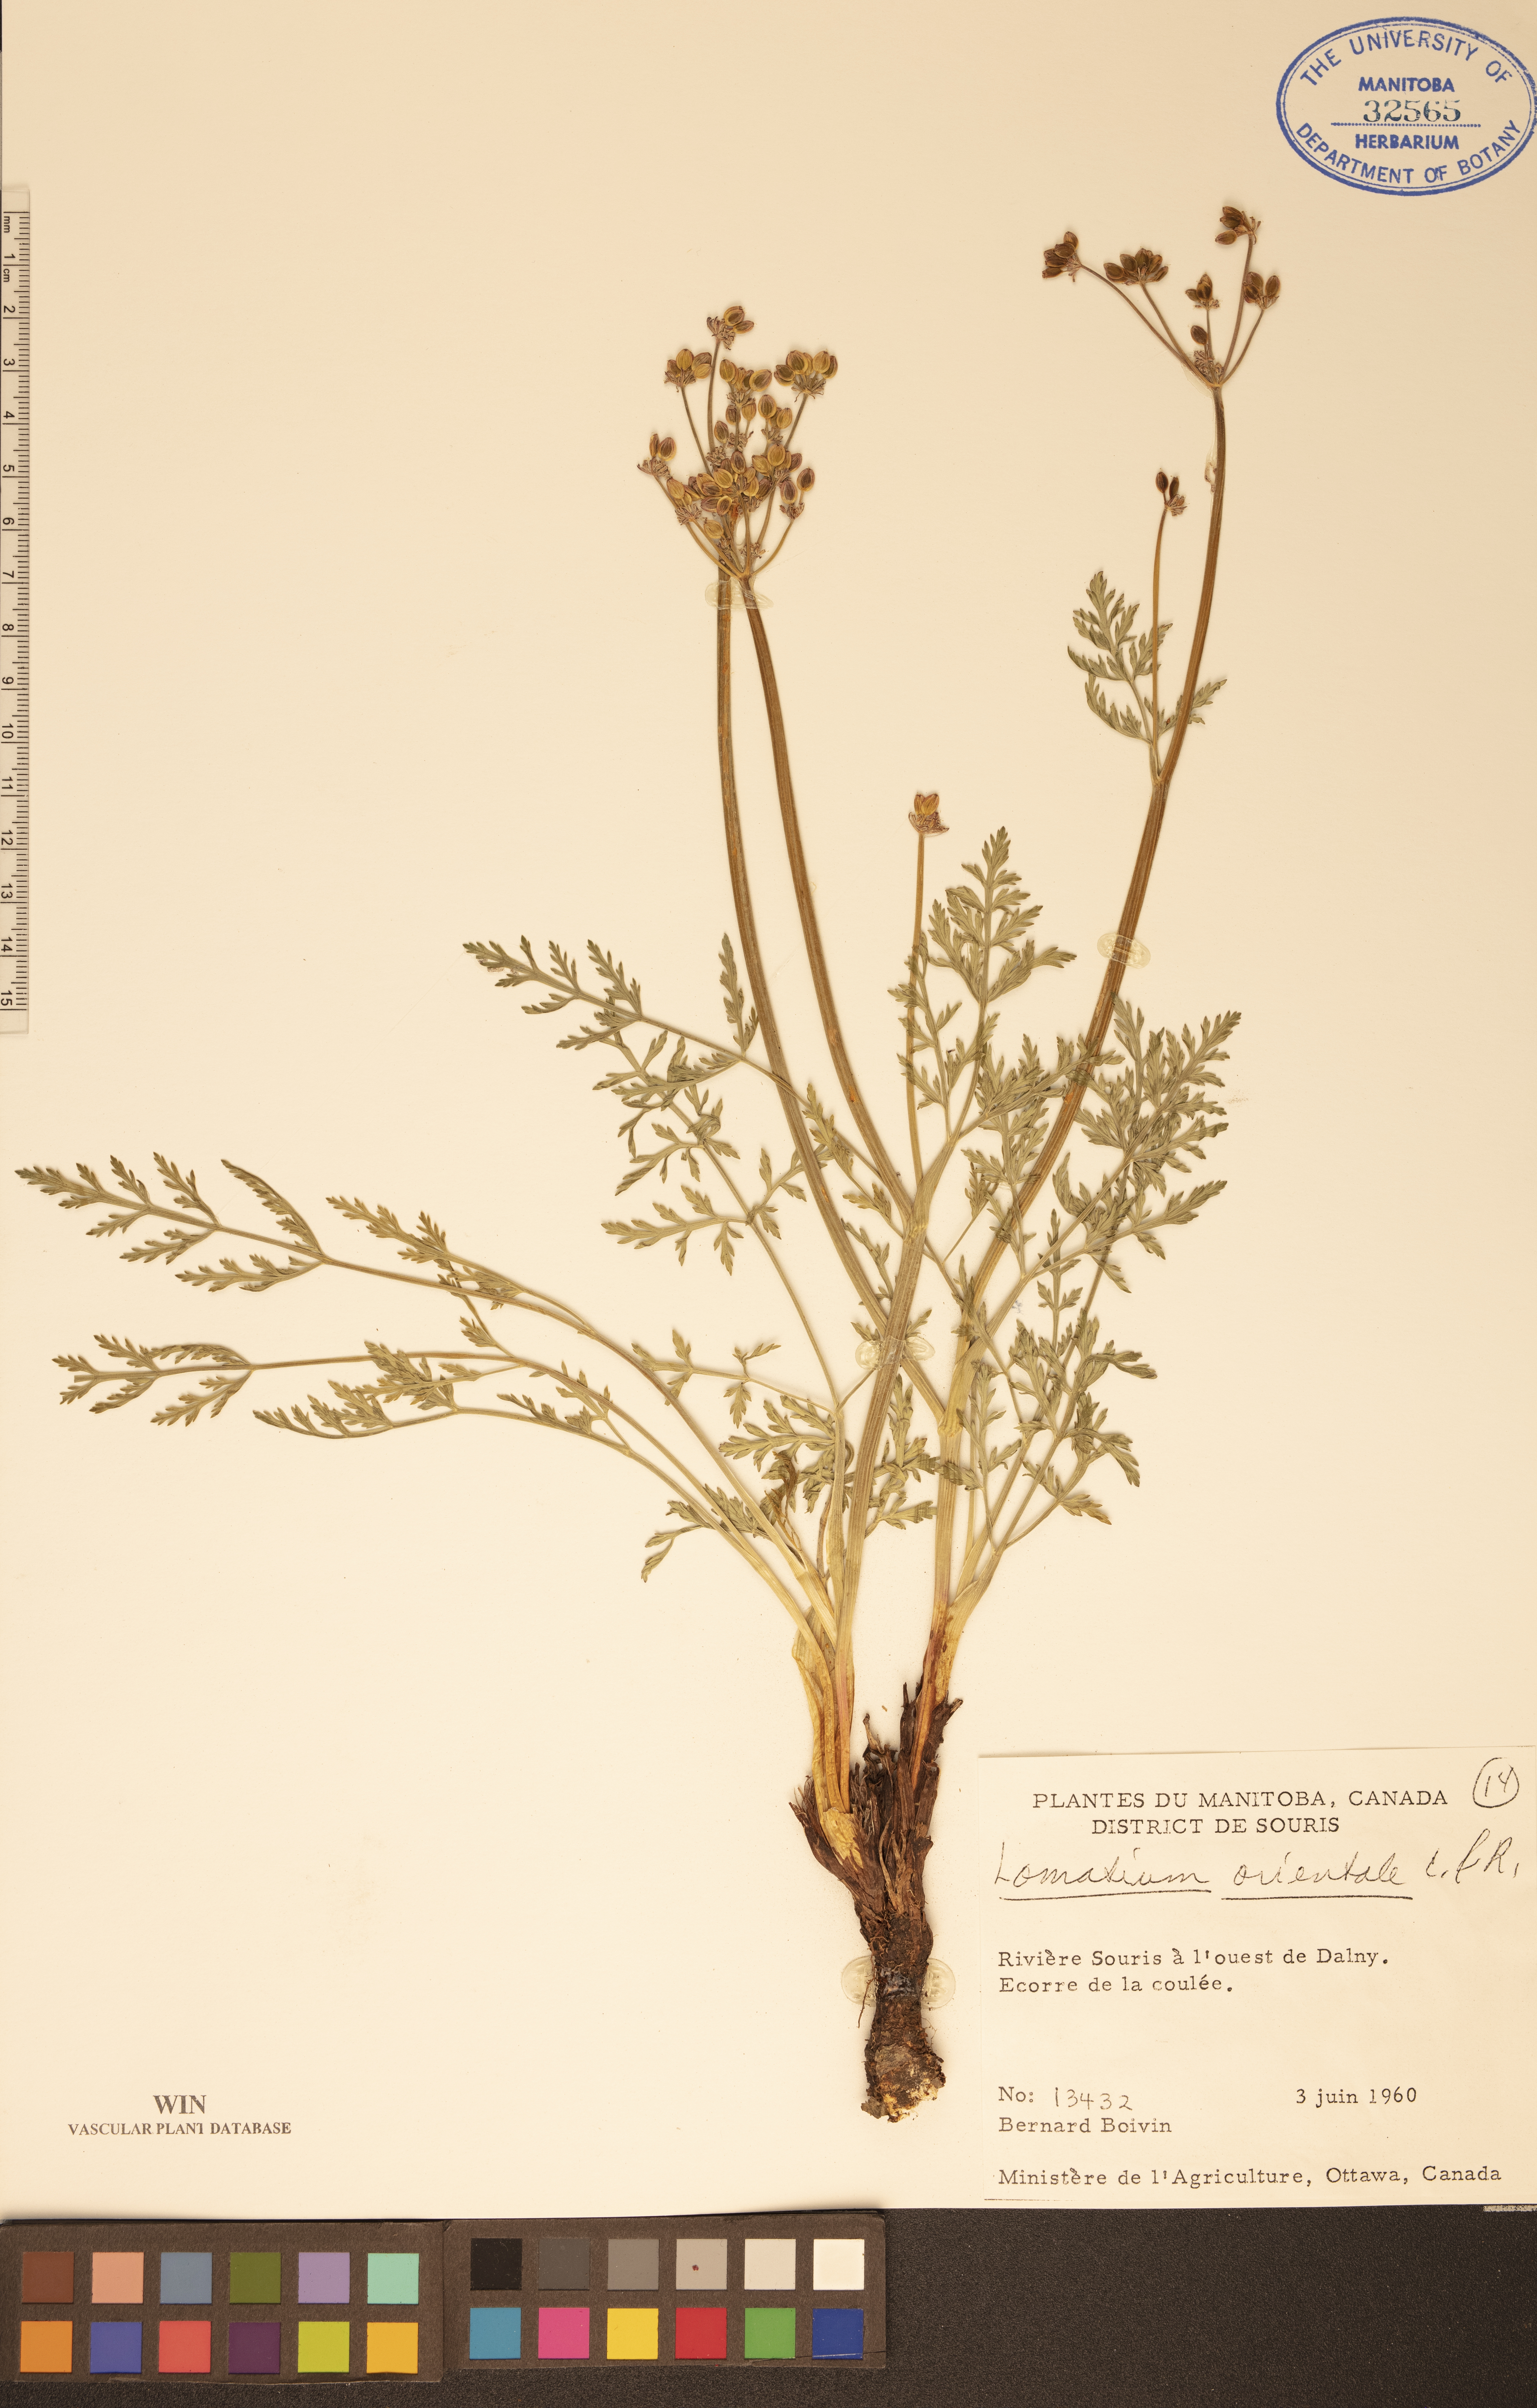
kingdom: Plantae
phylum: Tracheophyta
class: Magnoliopsida
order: Apiales
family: Apiaceae
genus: Lomatium
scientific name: Lomatium orientale
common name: Eastern cous
